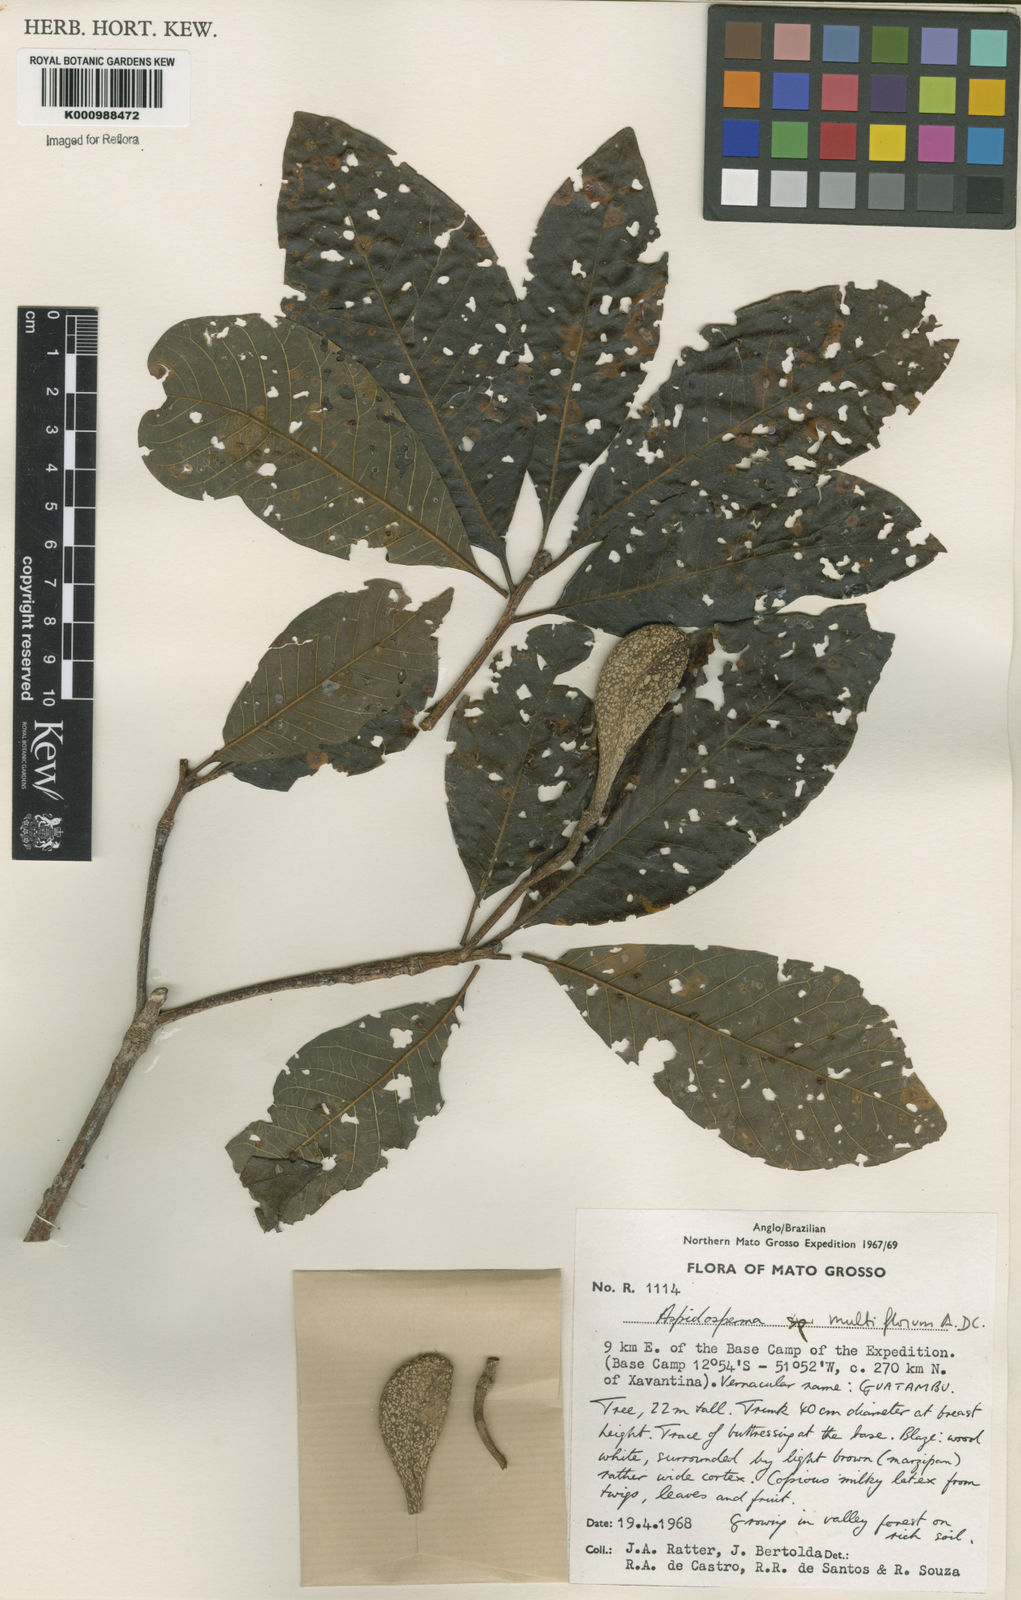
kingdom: Plantae
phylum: Tracheophyta
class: Magnoliopsida
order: Gentianales
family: Apocynaceae
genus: Aspidosperma
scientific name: Aspidosperma multiflorum
